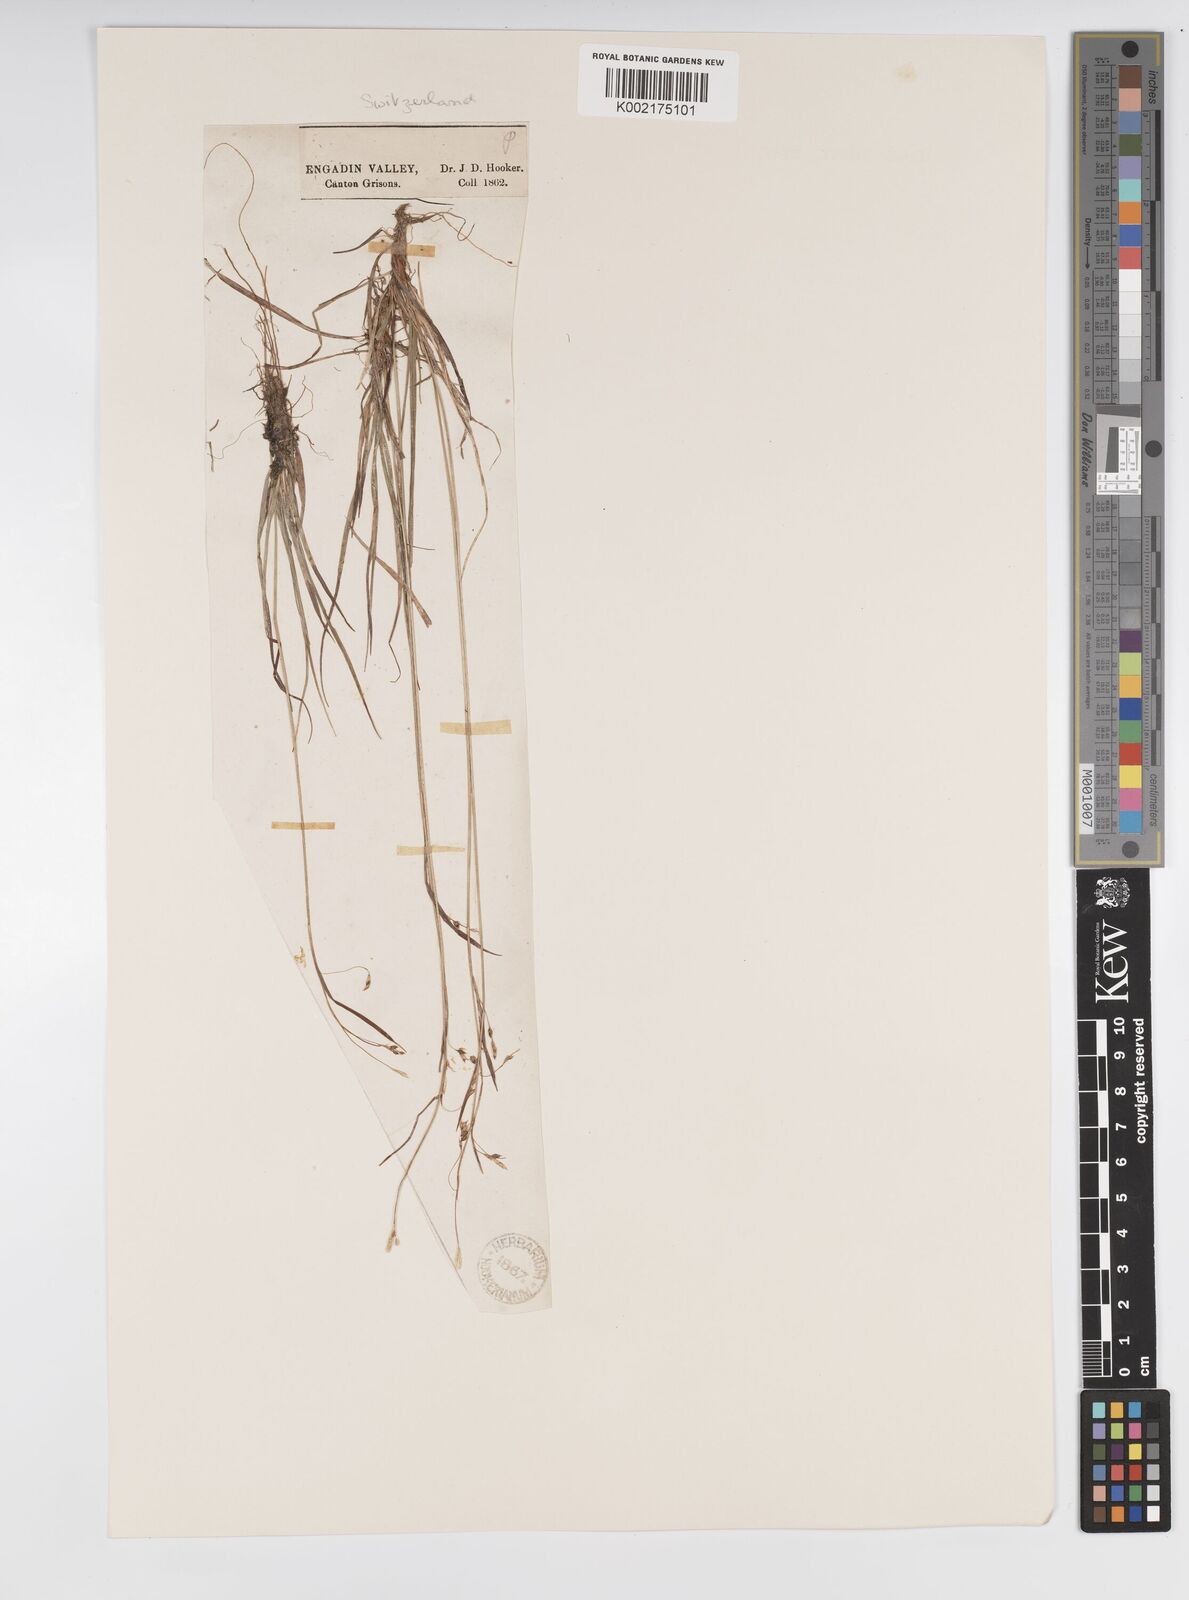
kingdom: Plantae
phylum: Tracheophyta
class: Liliopsida
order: Poales
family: Cyperaceae
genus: Carex
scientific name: Carex capillaris
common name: Hair sedge
